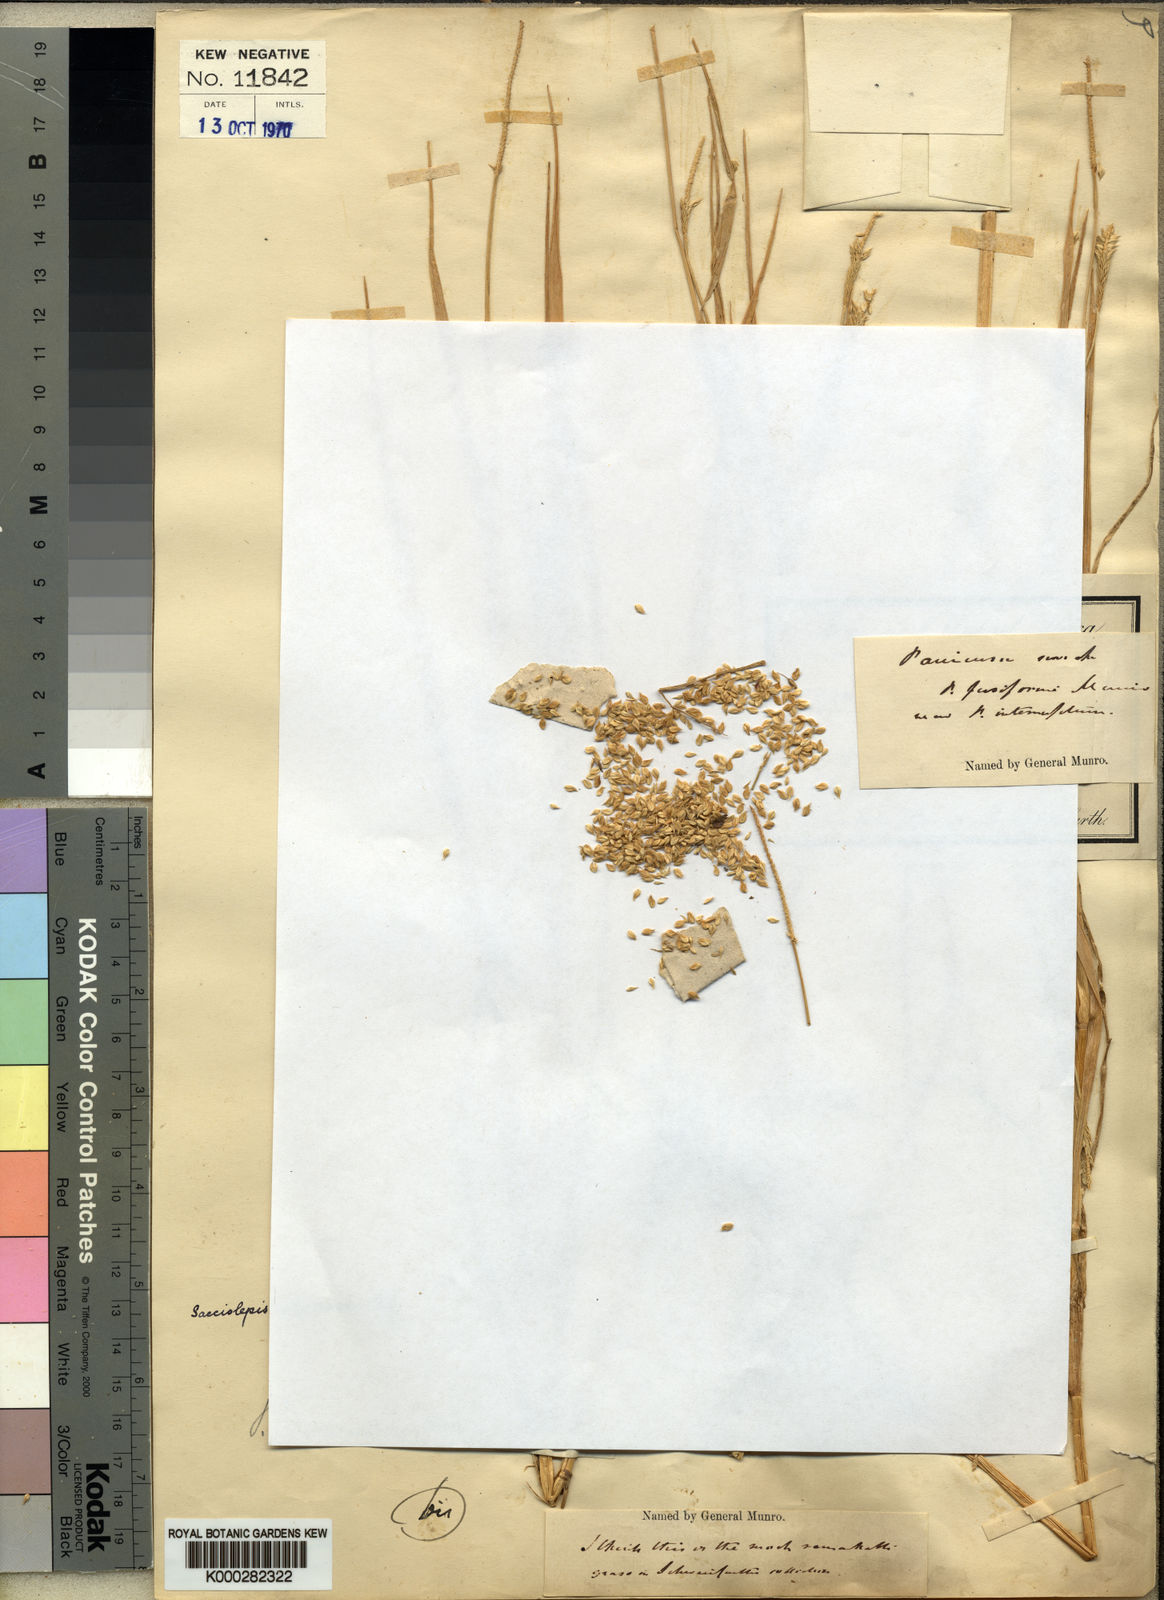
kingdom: Plantae
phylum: Tracheophyta
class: Liliopsida
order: Poales
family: Poaceae
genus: Sacciolepis
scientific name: Sacciolepis ciliocincta
